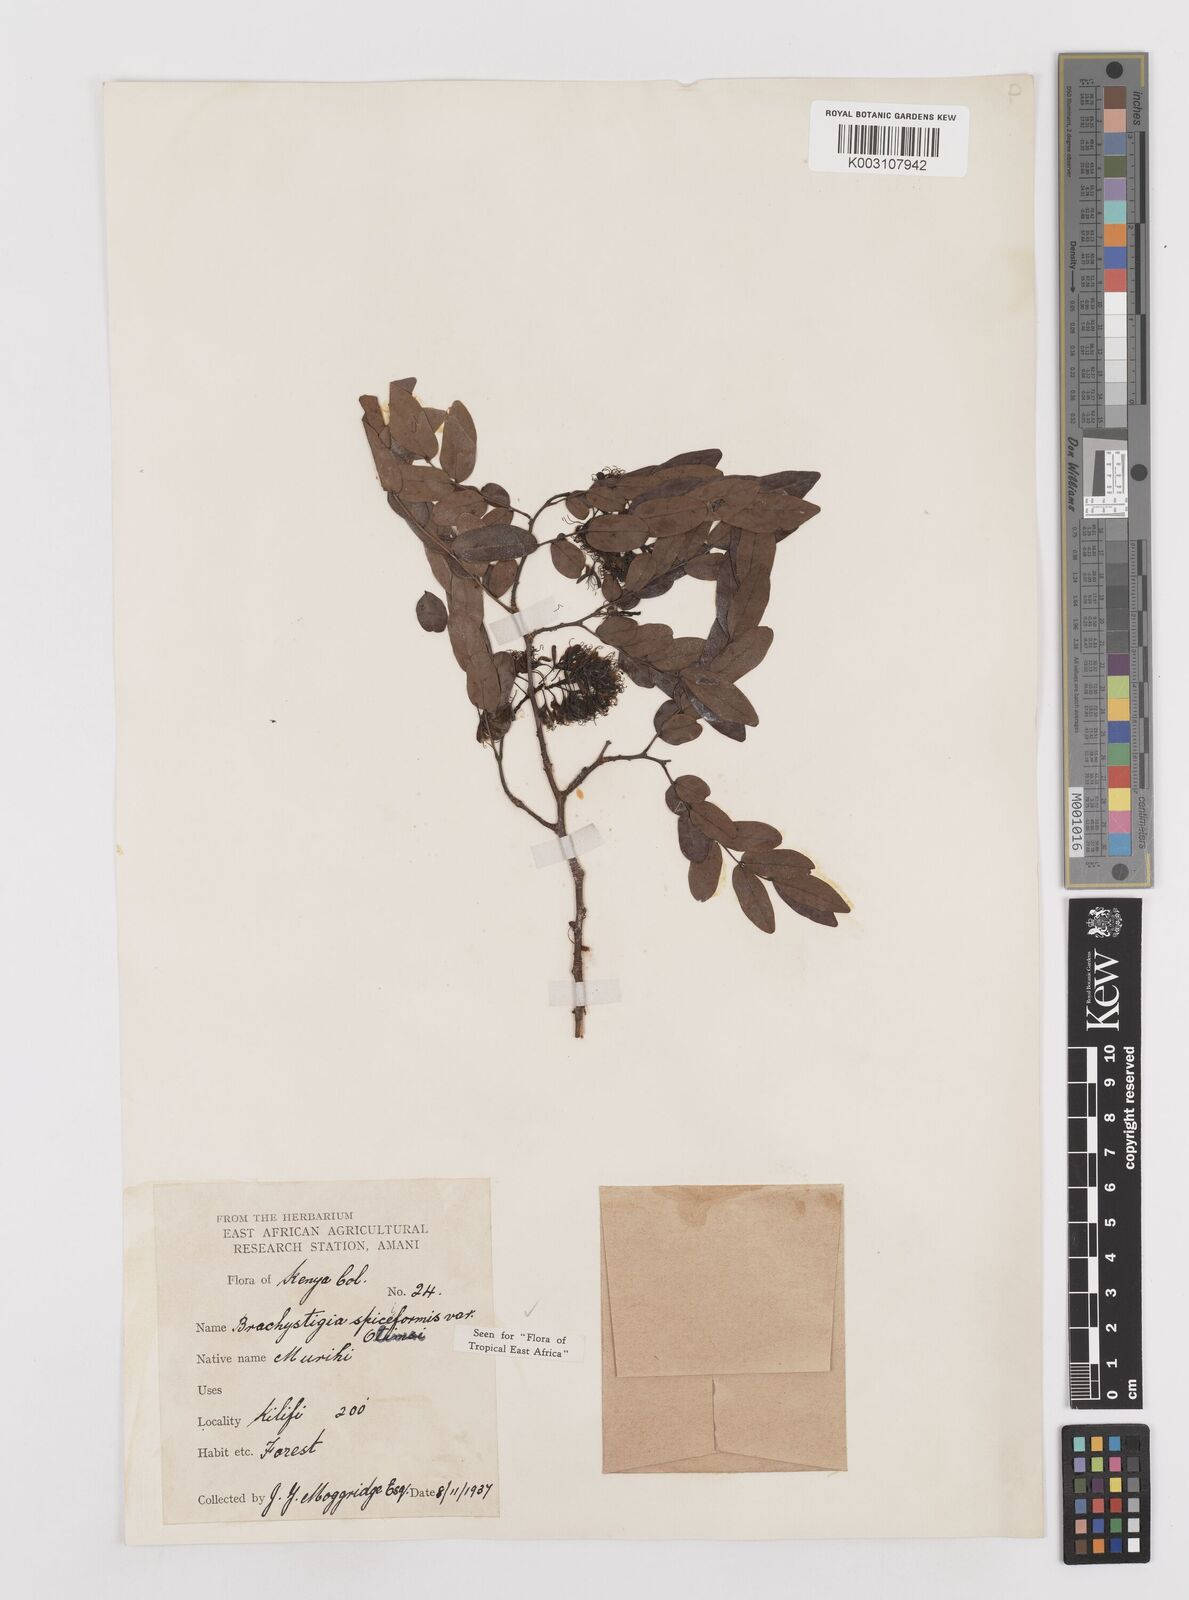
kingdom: Plantae
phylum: Tracheophyta
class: Magnoliopsida
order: Fabales
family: Fabaceae
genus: Brachystegia
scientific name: Brachystegia spiciformis
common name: Zebrawood
